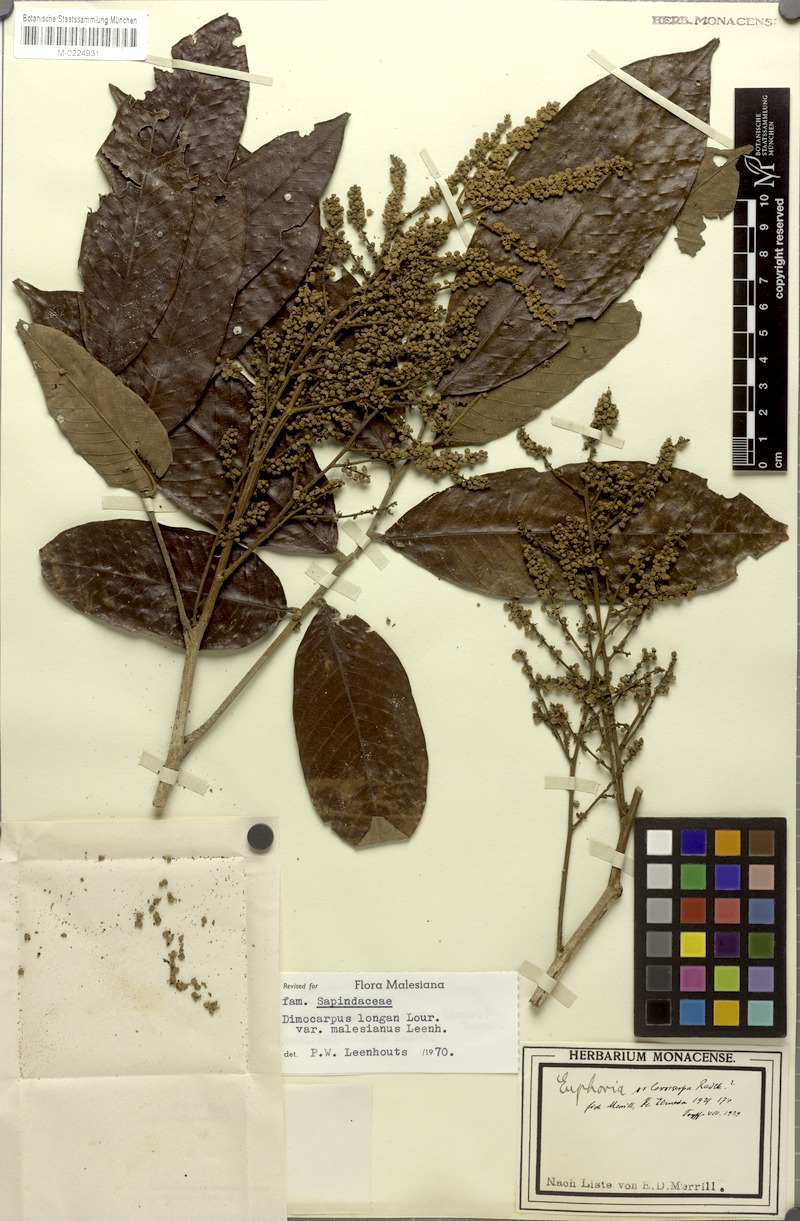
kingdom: Plantae
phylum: Tracheophyta
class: Magnoliopsida
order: Sapindales
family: Sapindaceae
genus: Litchi
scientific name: Litchi Euphoria sclerocarpa
